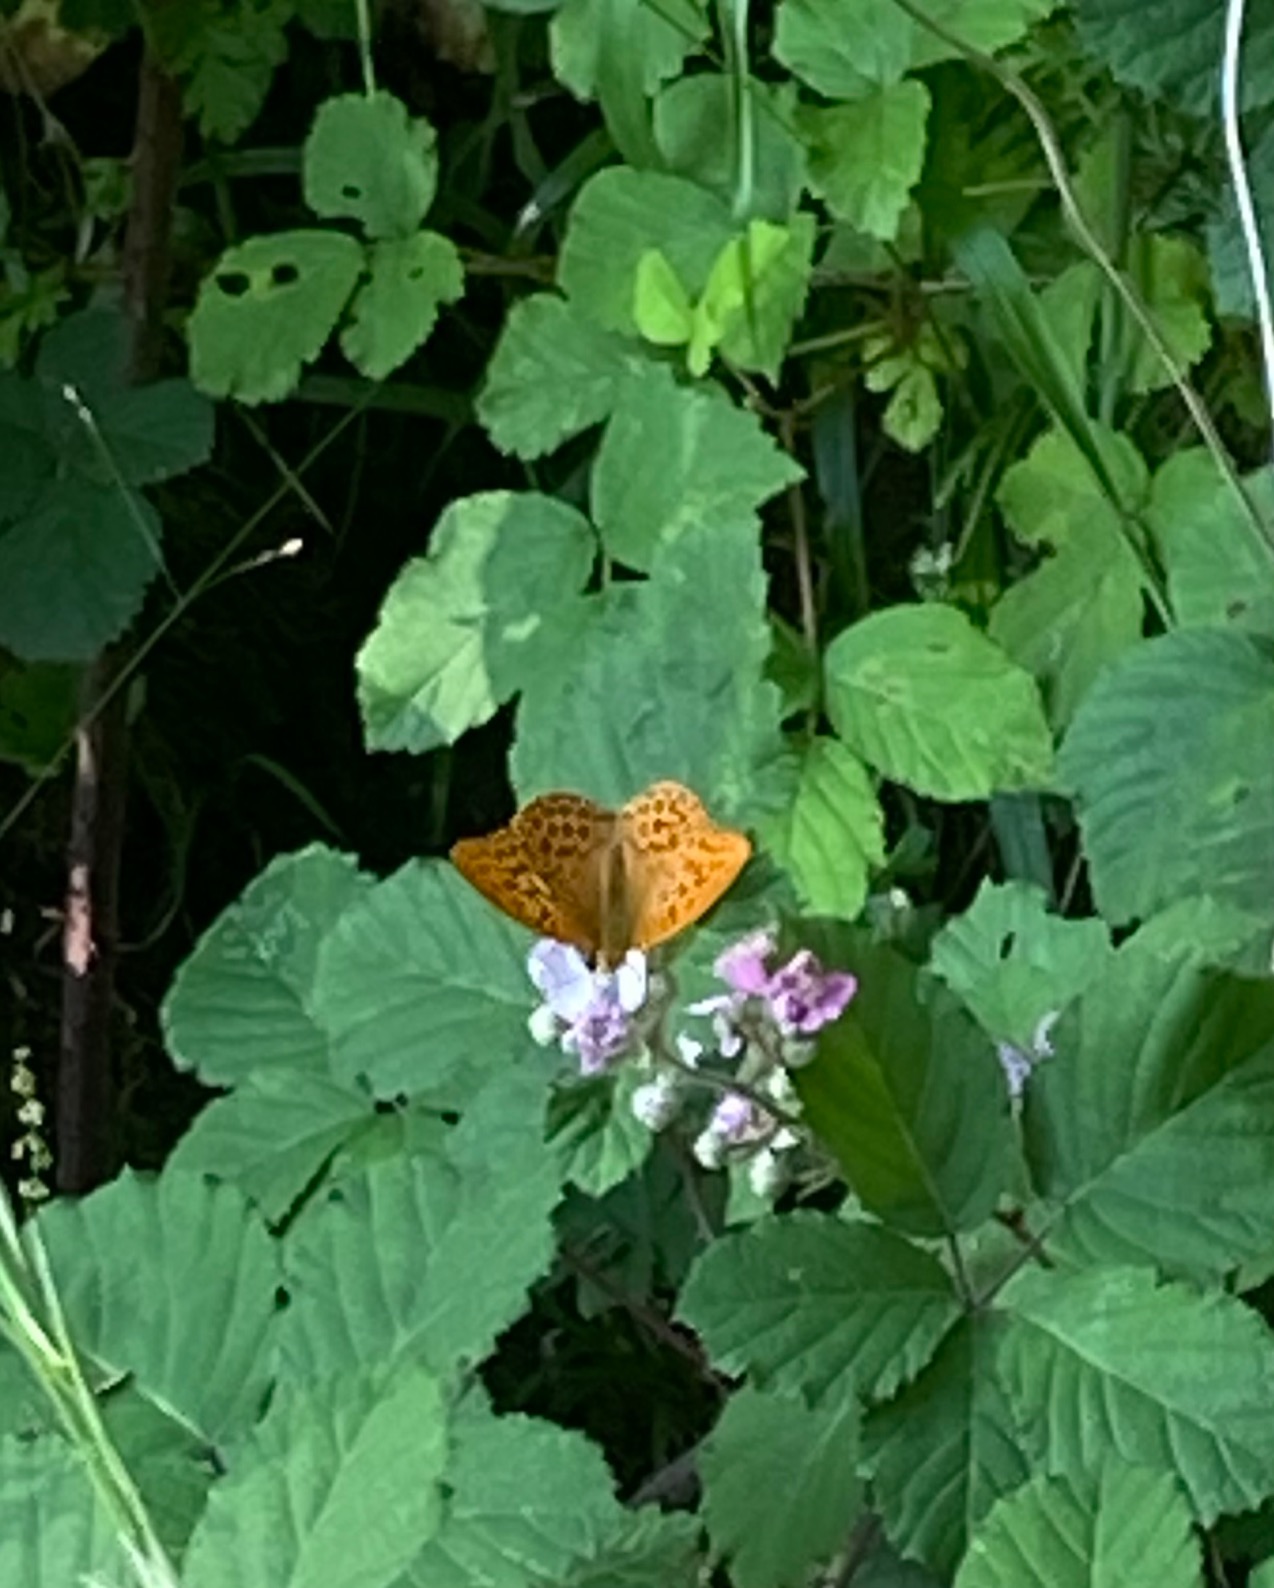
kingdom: Animalia
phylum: Arthropoda
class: Insecta
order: Lepidoptera
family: Nymphalidae
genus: Argynnis
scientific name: Argynnis paphia
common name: Kejserkåbe
